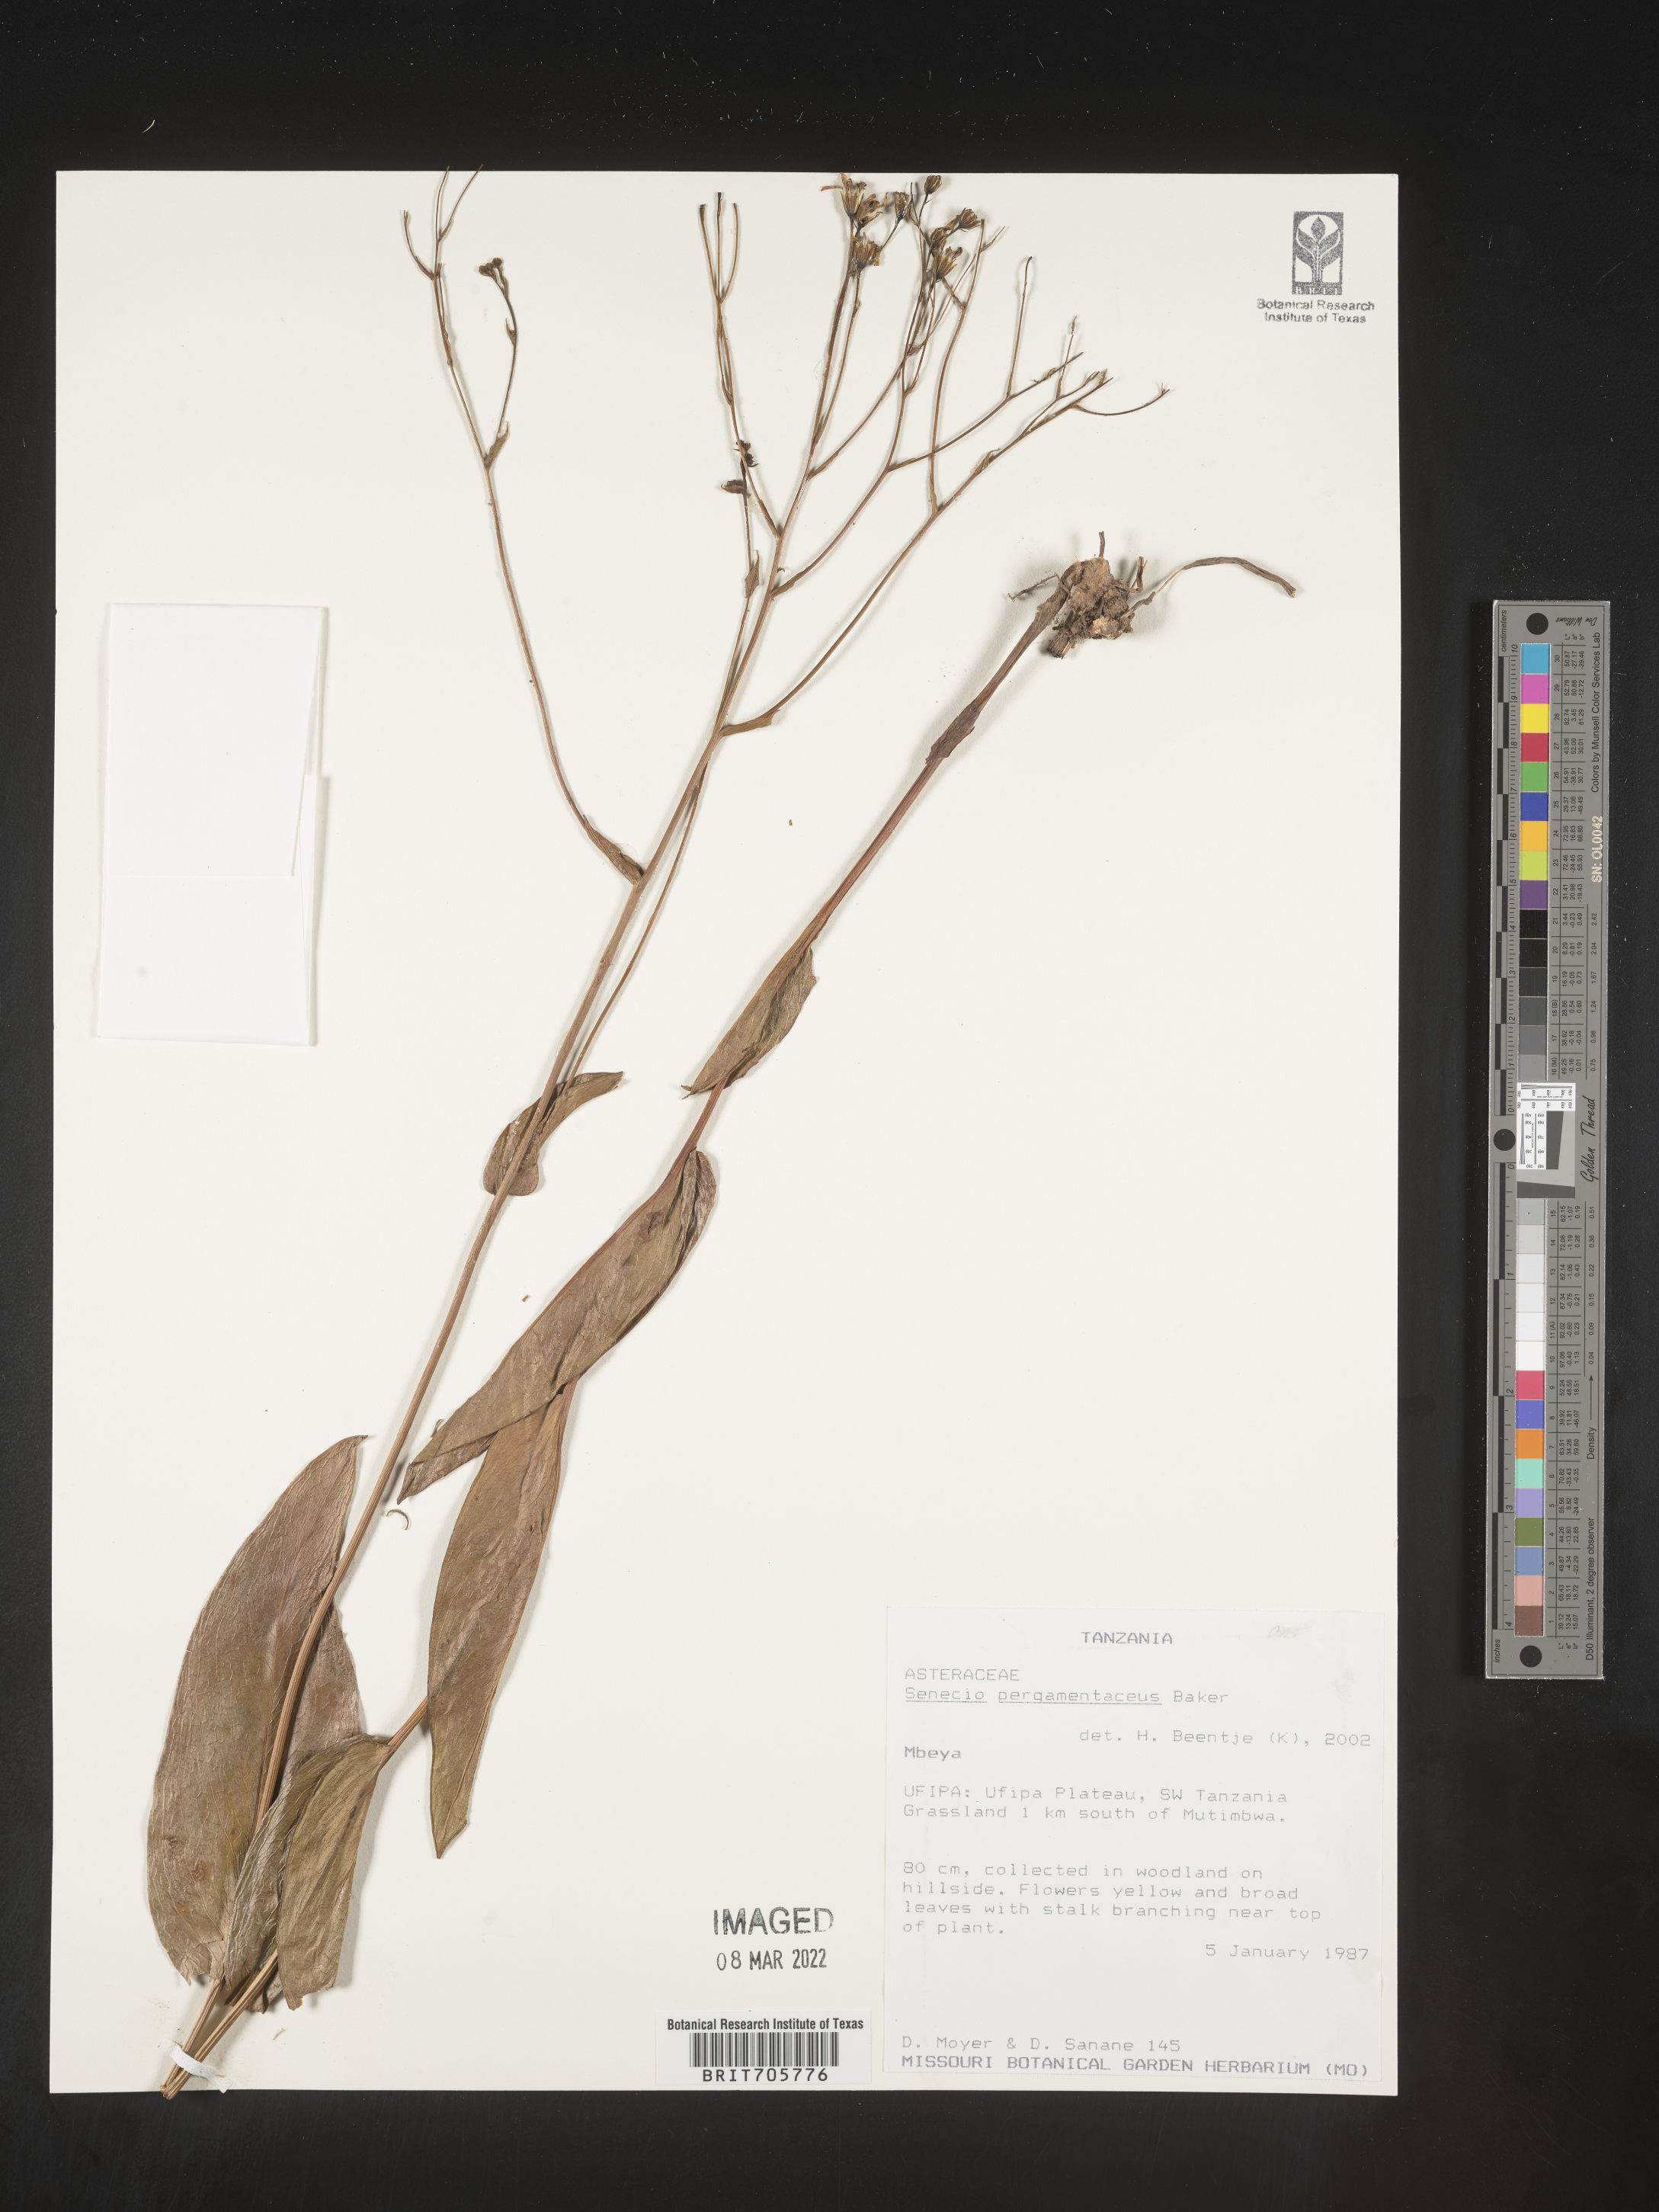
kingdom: Plantae
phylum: Tracheophyta
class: Magnoliopsida
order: Asterales
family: Asteraceae
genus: Senecio
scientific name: Senecio
